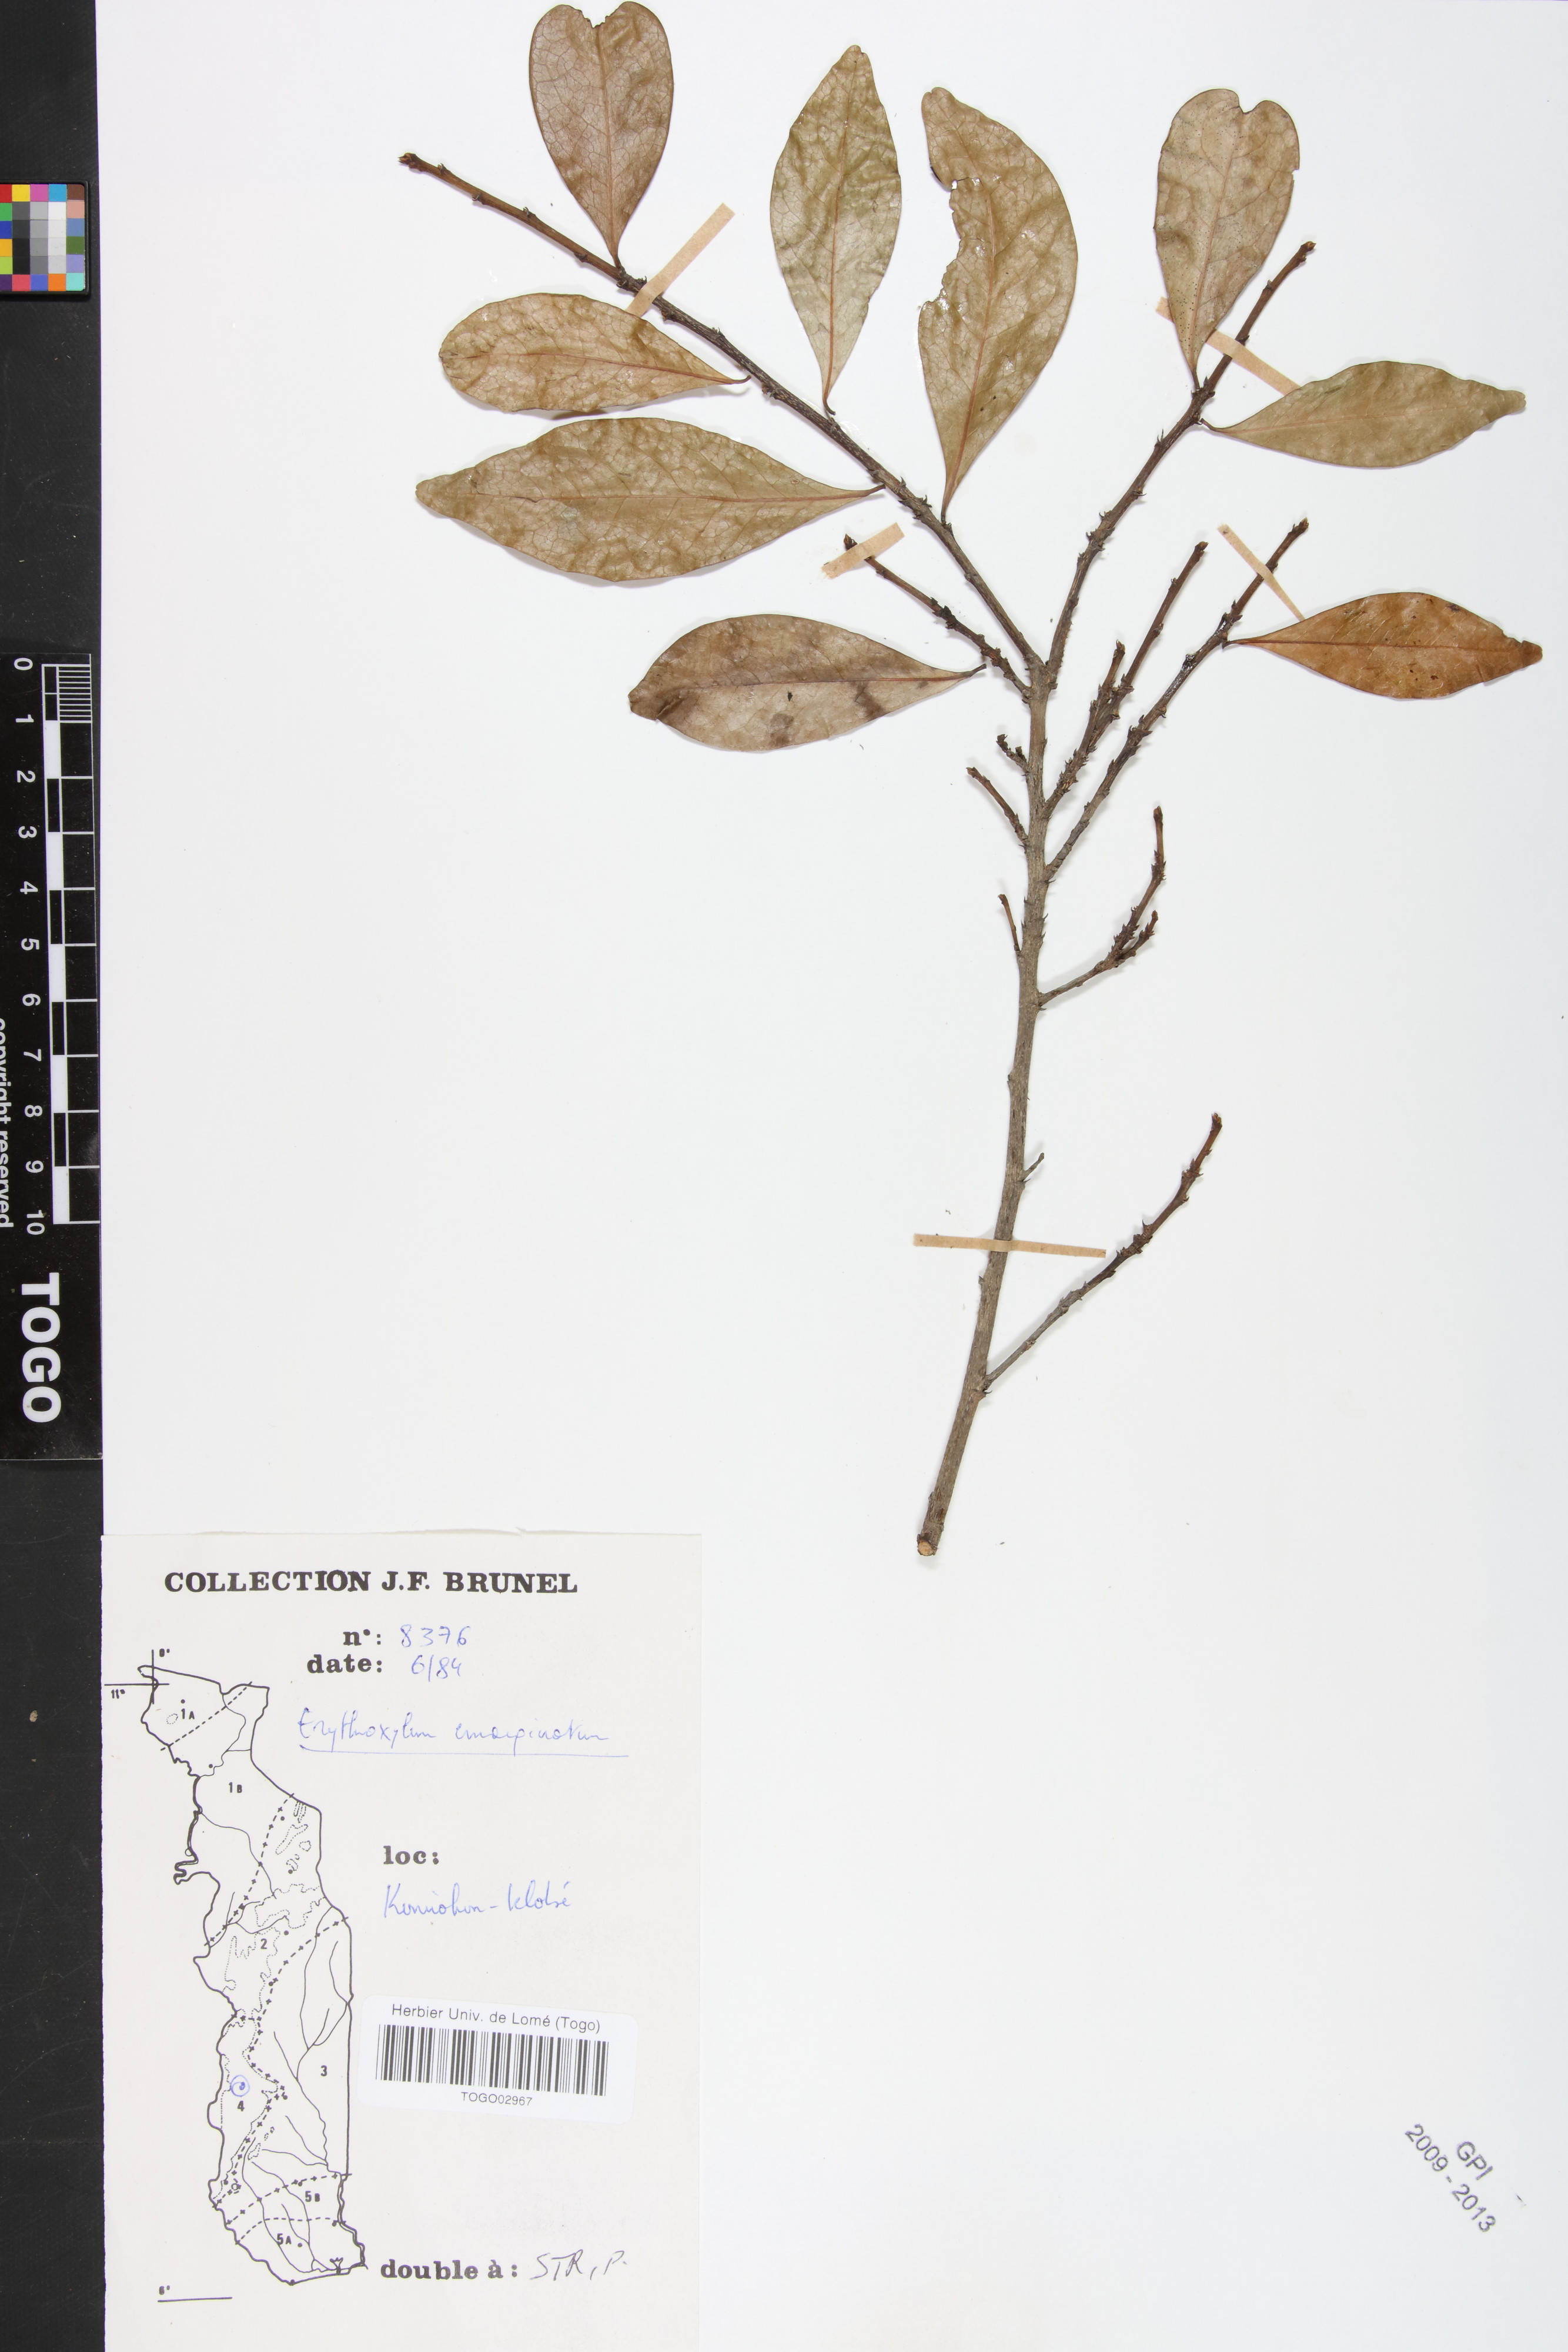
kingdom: Plantae
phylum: Tracheophyta
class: Magnoliopsida
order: Malpighiales
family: Erythroxylaceae
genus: Erythroxylum
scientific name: Erythroxylum emarginatum
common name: African coca-tree
